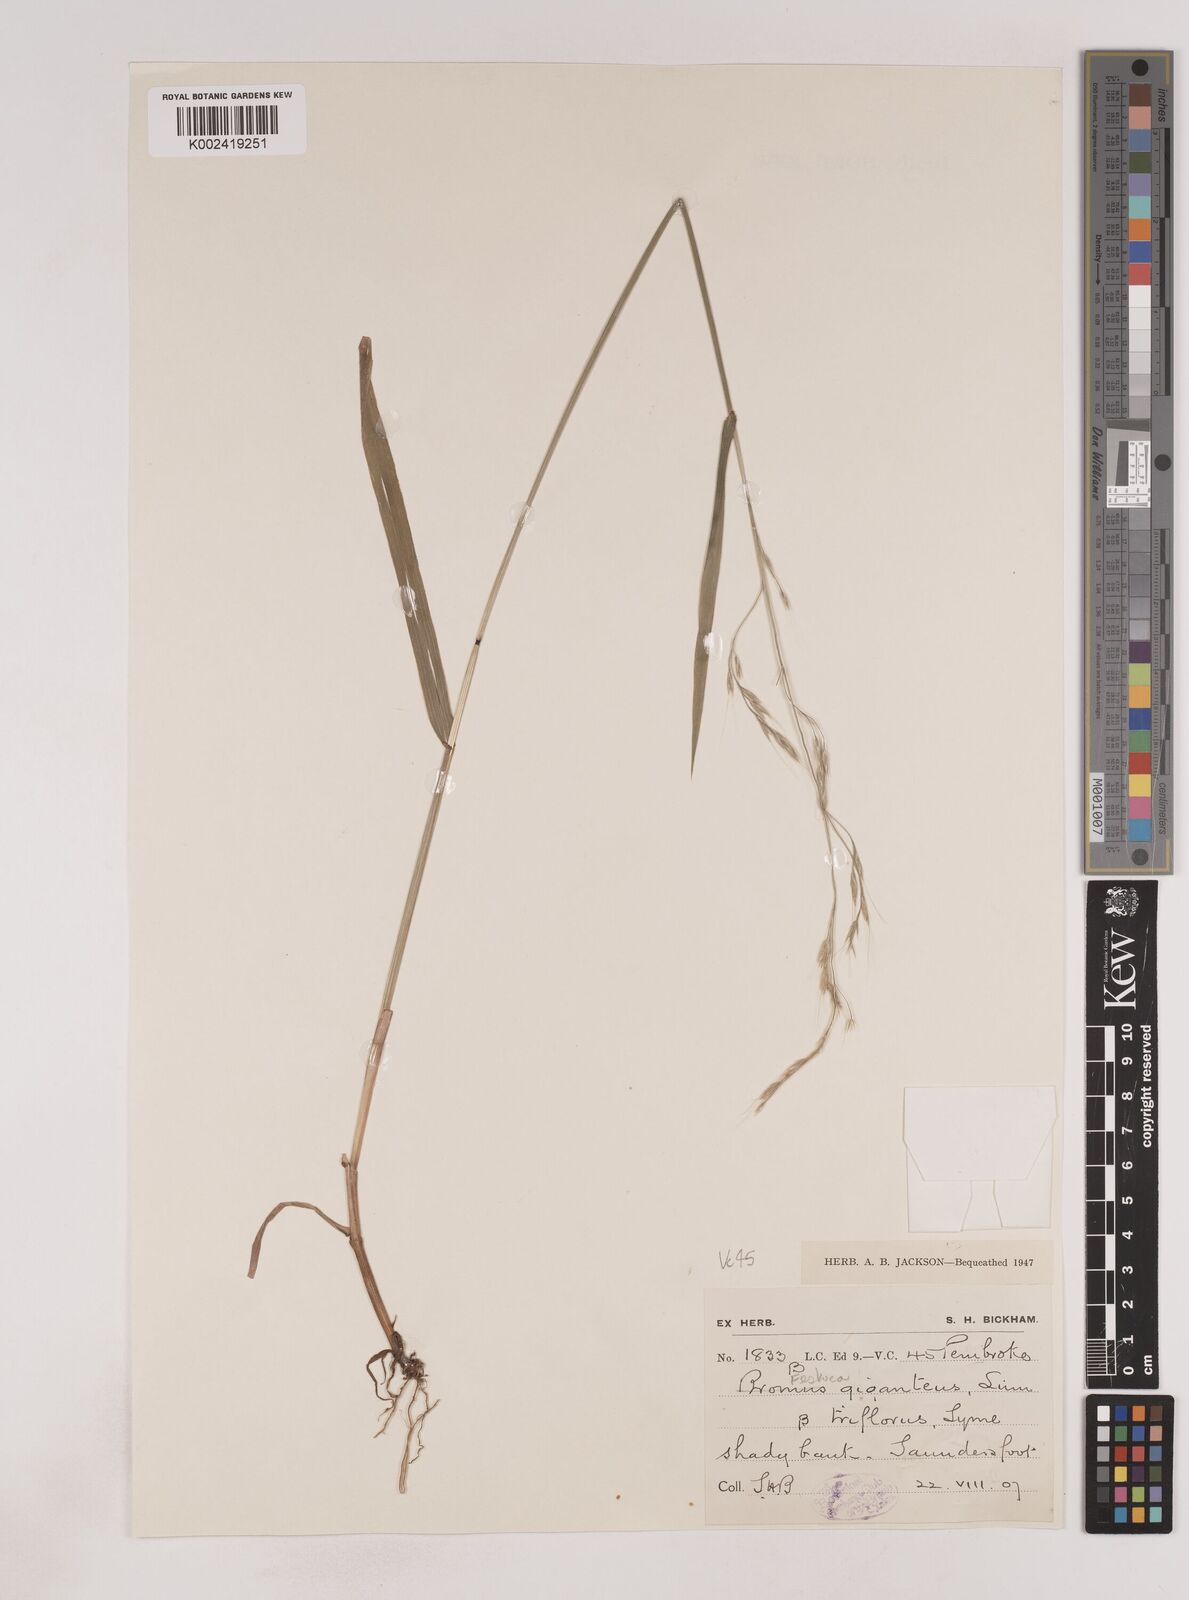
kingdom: Plantae
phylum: Tracheophyta
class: Liliopsida
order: Poales
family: Poaceae
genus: Lolium
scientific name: Lolium giganteum
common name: Giant fescue
